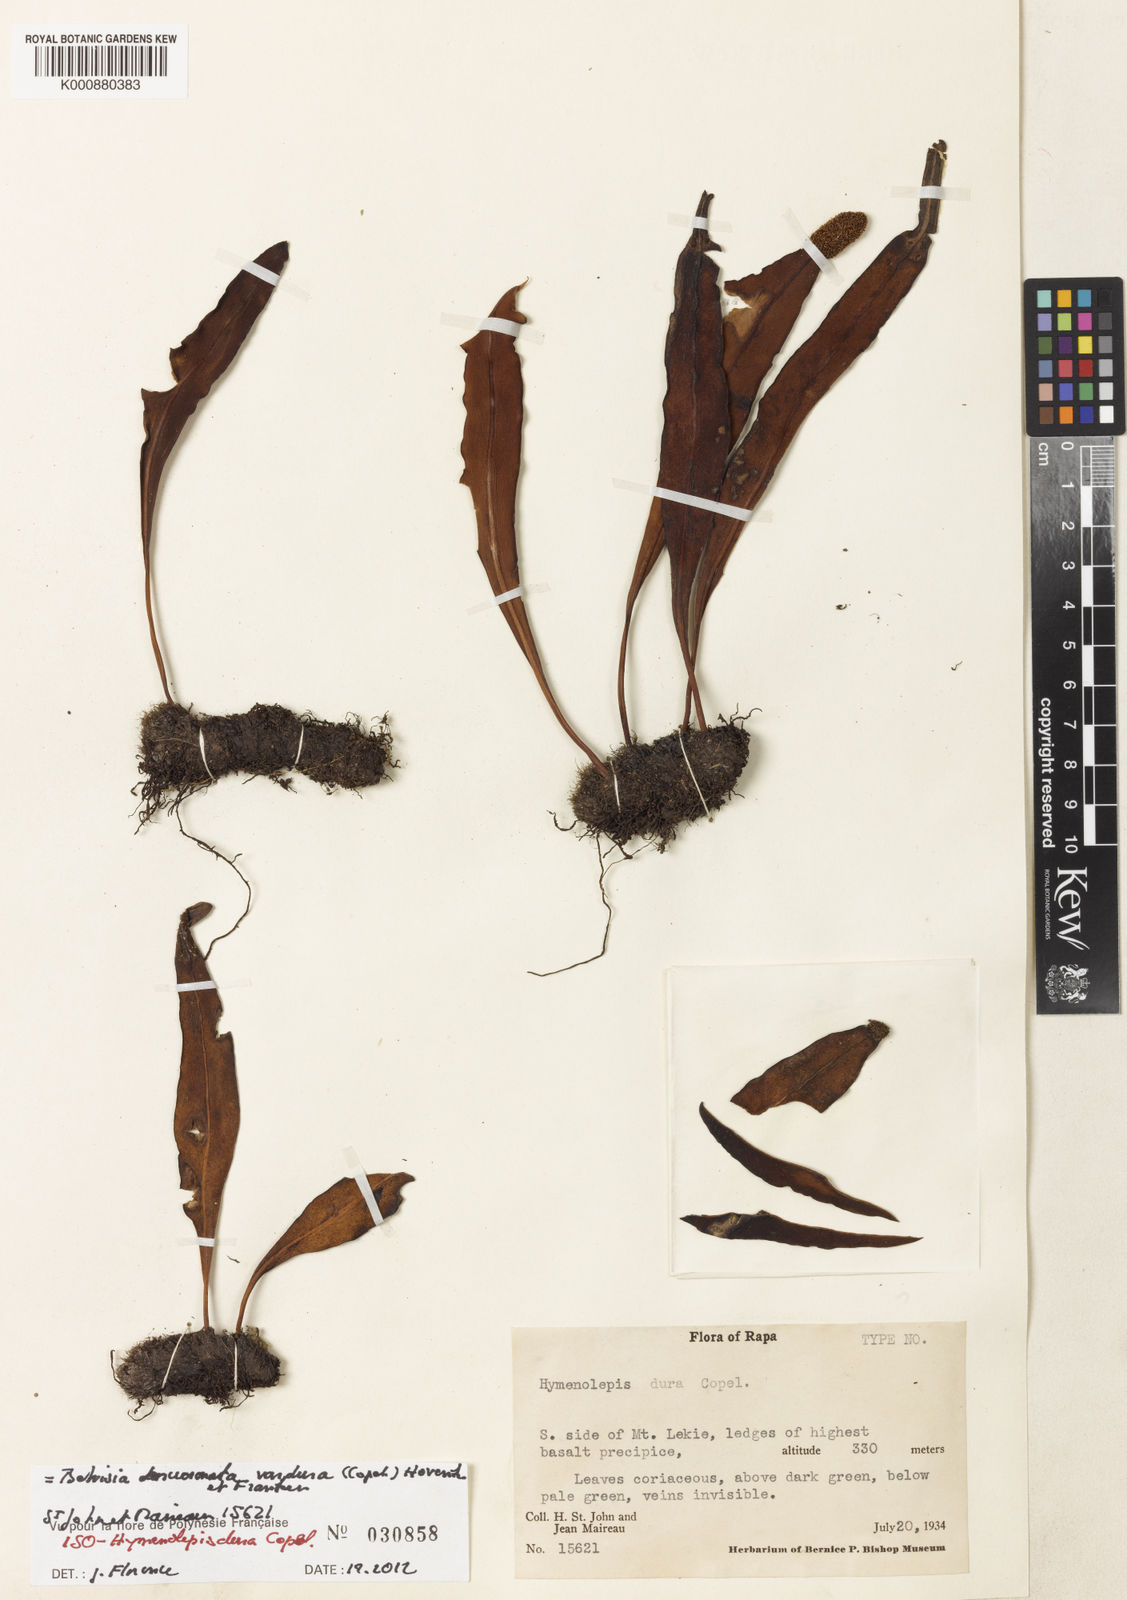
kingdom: Plantae
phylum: Tracheophyta
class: Polypodiopsida
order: Polypodiales
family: Polypodiaceae
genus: Lepisorus
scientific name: Lepisorus mucronatus
